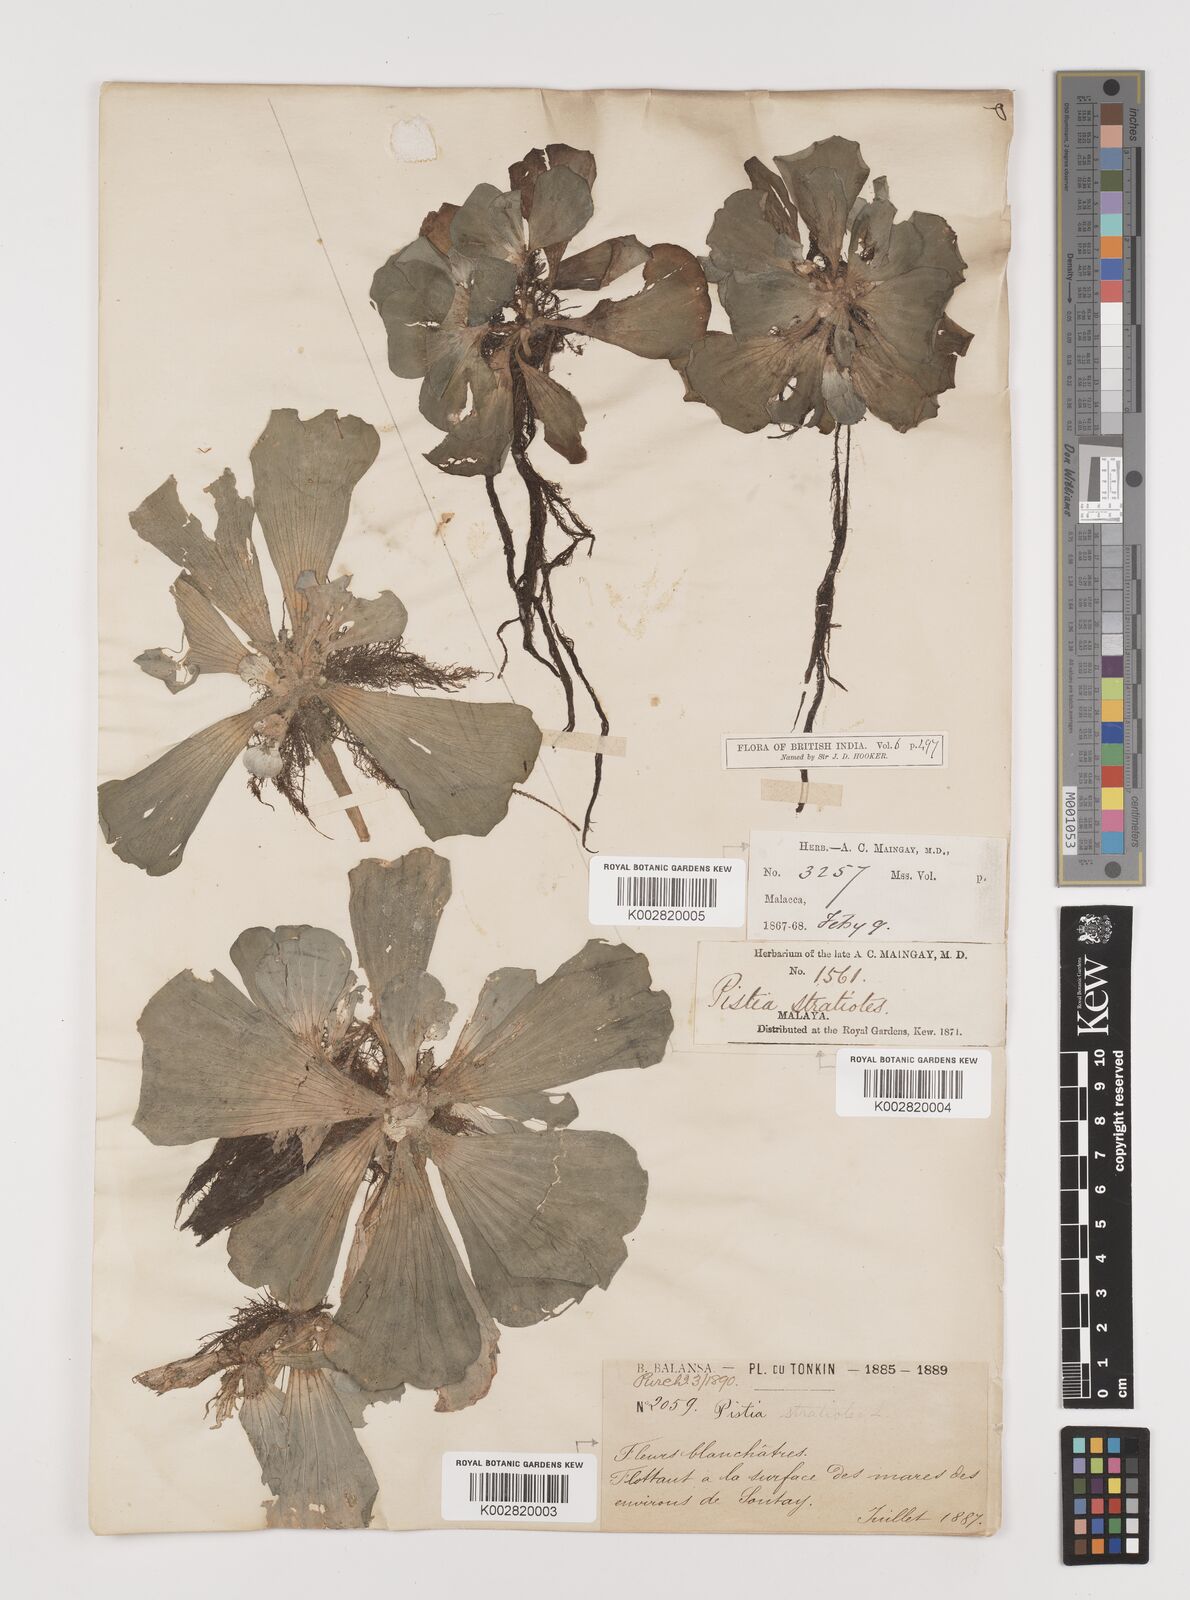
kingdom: Plantae
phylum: Tracheophyta
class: Liliopsida
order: Alismatales
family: Araceae
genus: Pistia
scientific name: Pistia stratiotes
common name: Water lettuce
